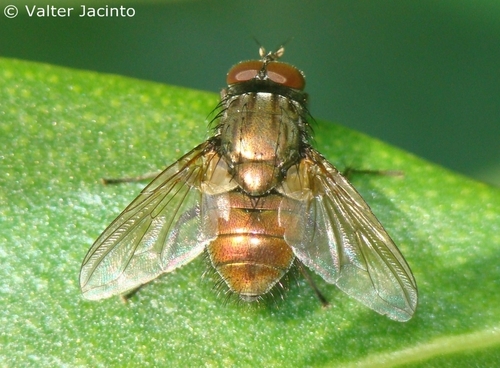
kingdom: Animalia
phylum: Arthropoda
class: Insecta
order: Diptera
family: Muscidae
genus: Dasyphora
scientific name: Dasyphora cyanella
